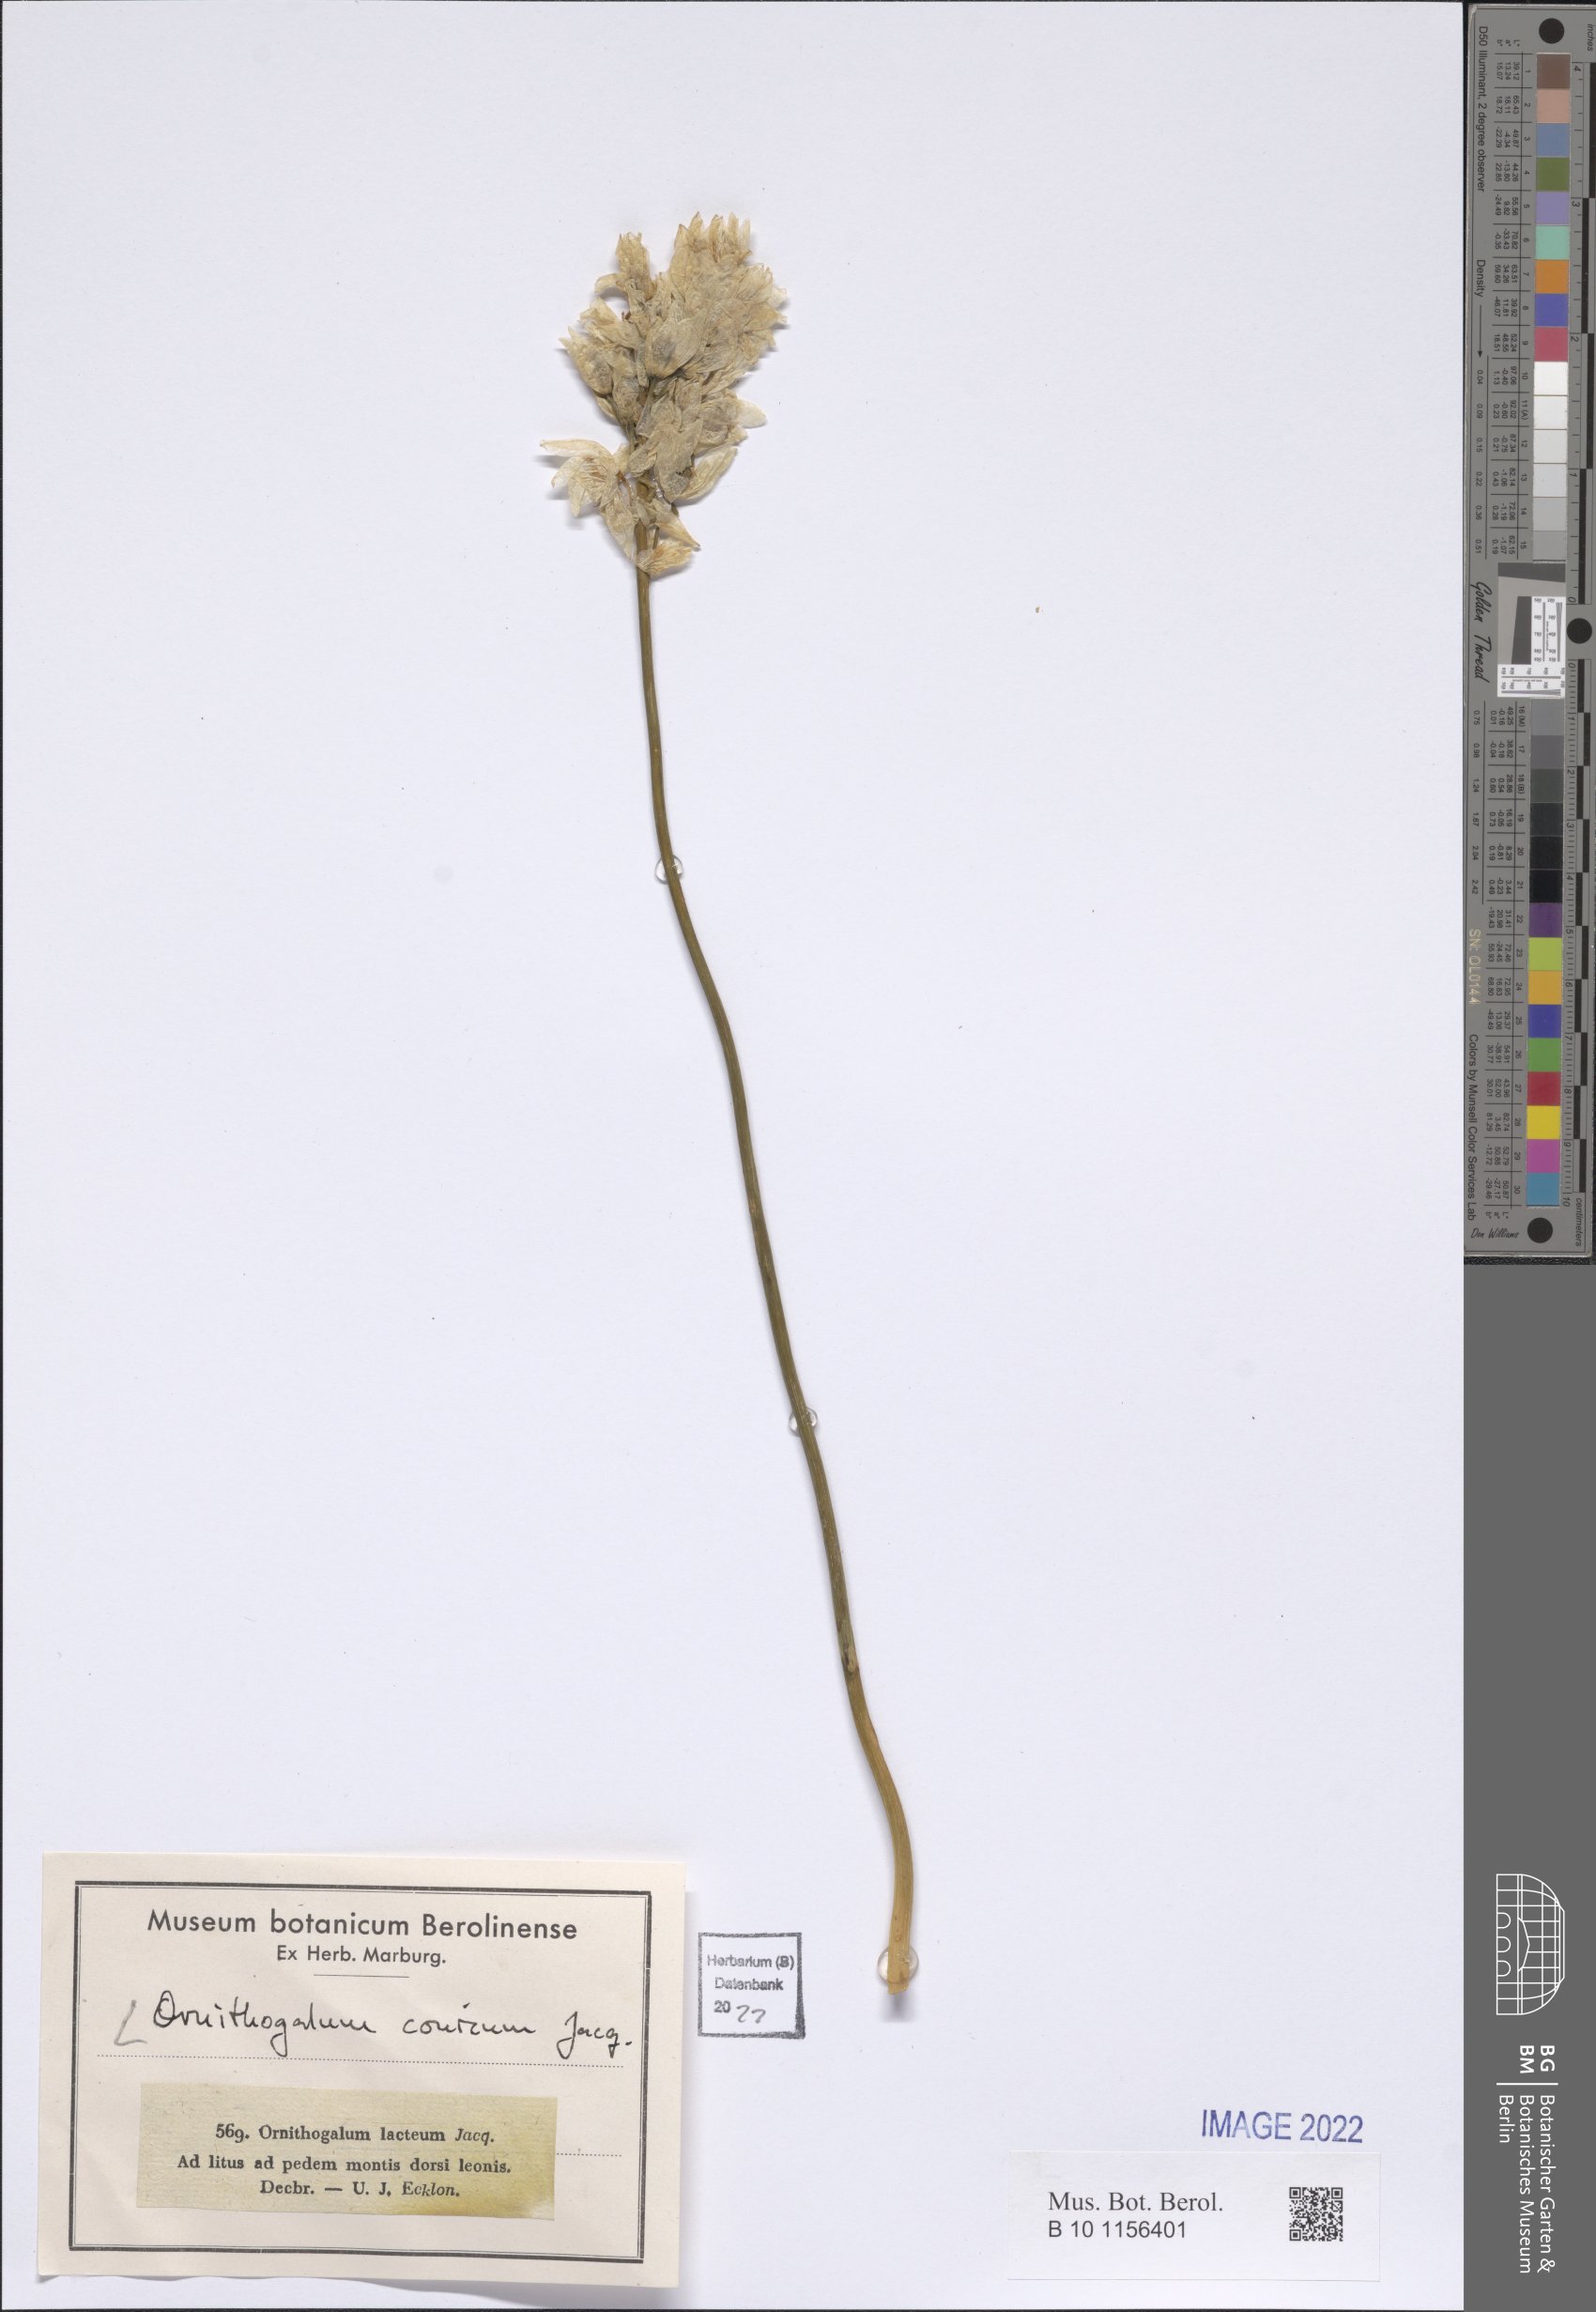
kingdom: Plantae
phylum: Tracheophyta
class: Liliopsida
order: Asparagales
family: Asparagaceae
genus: Ornithogalum
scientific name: Ornithogalum conicum
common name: Chinkerinchee
